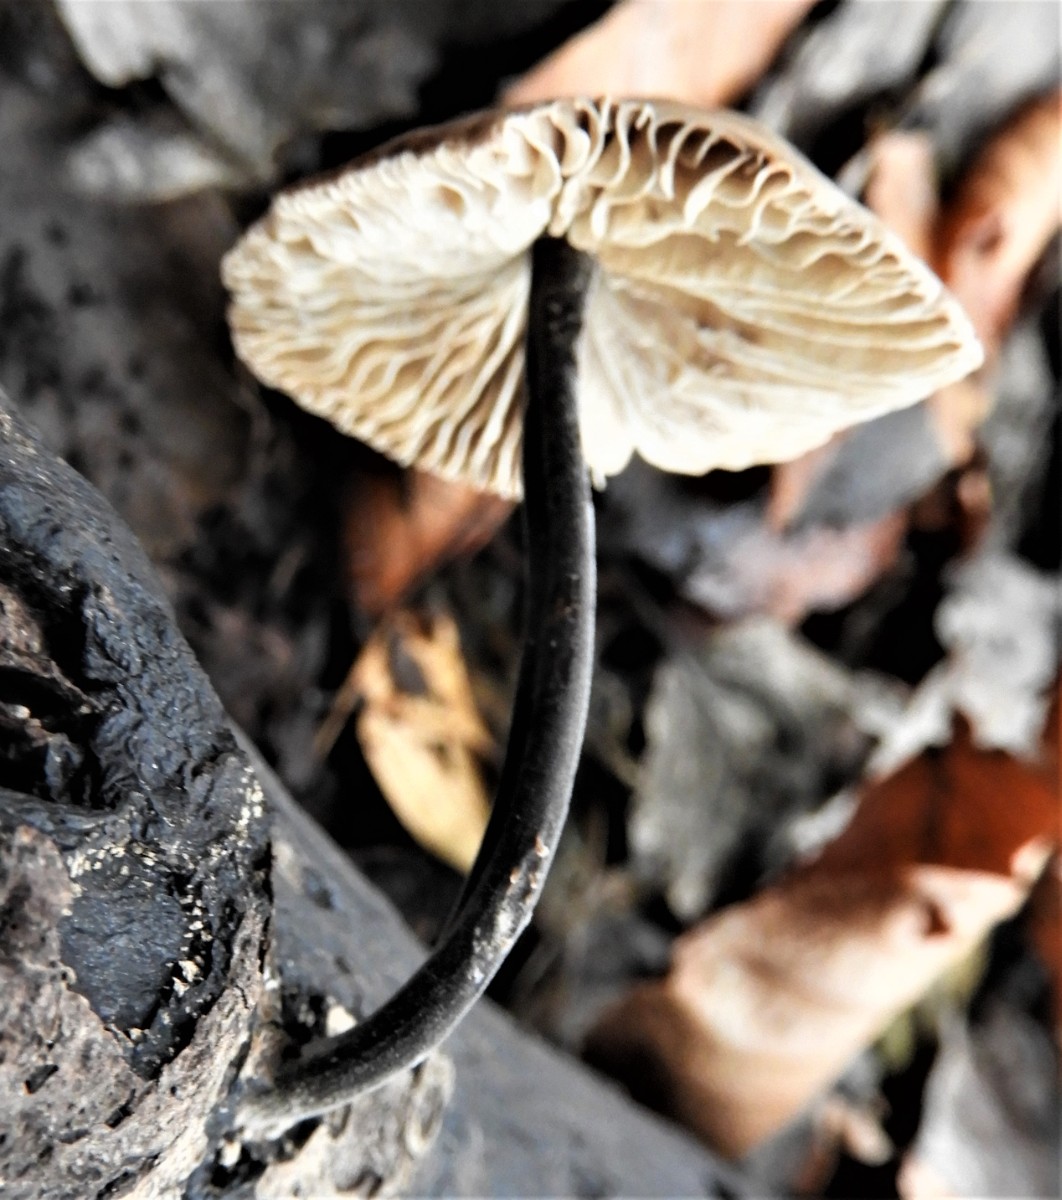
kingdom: Fungi
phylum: Basidiomycota
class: Agaricomycetes
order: Agaricales
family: Omphalotaceae
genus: Mycetinis
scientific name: Mycetinis alliaceus
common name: stor løghat
